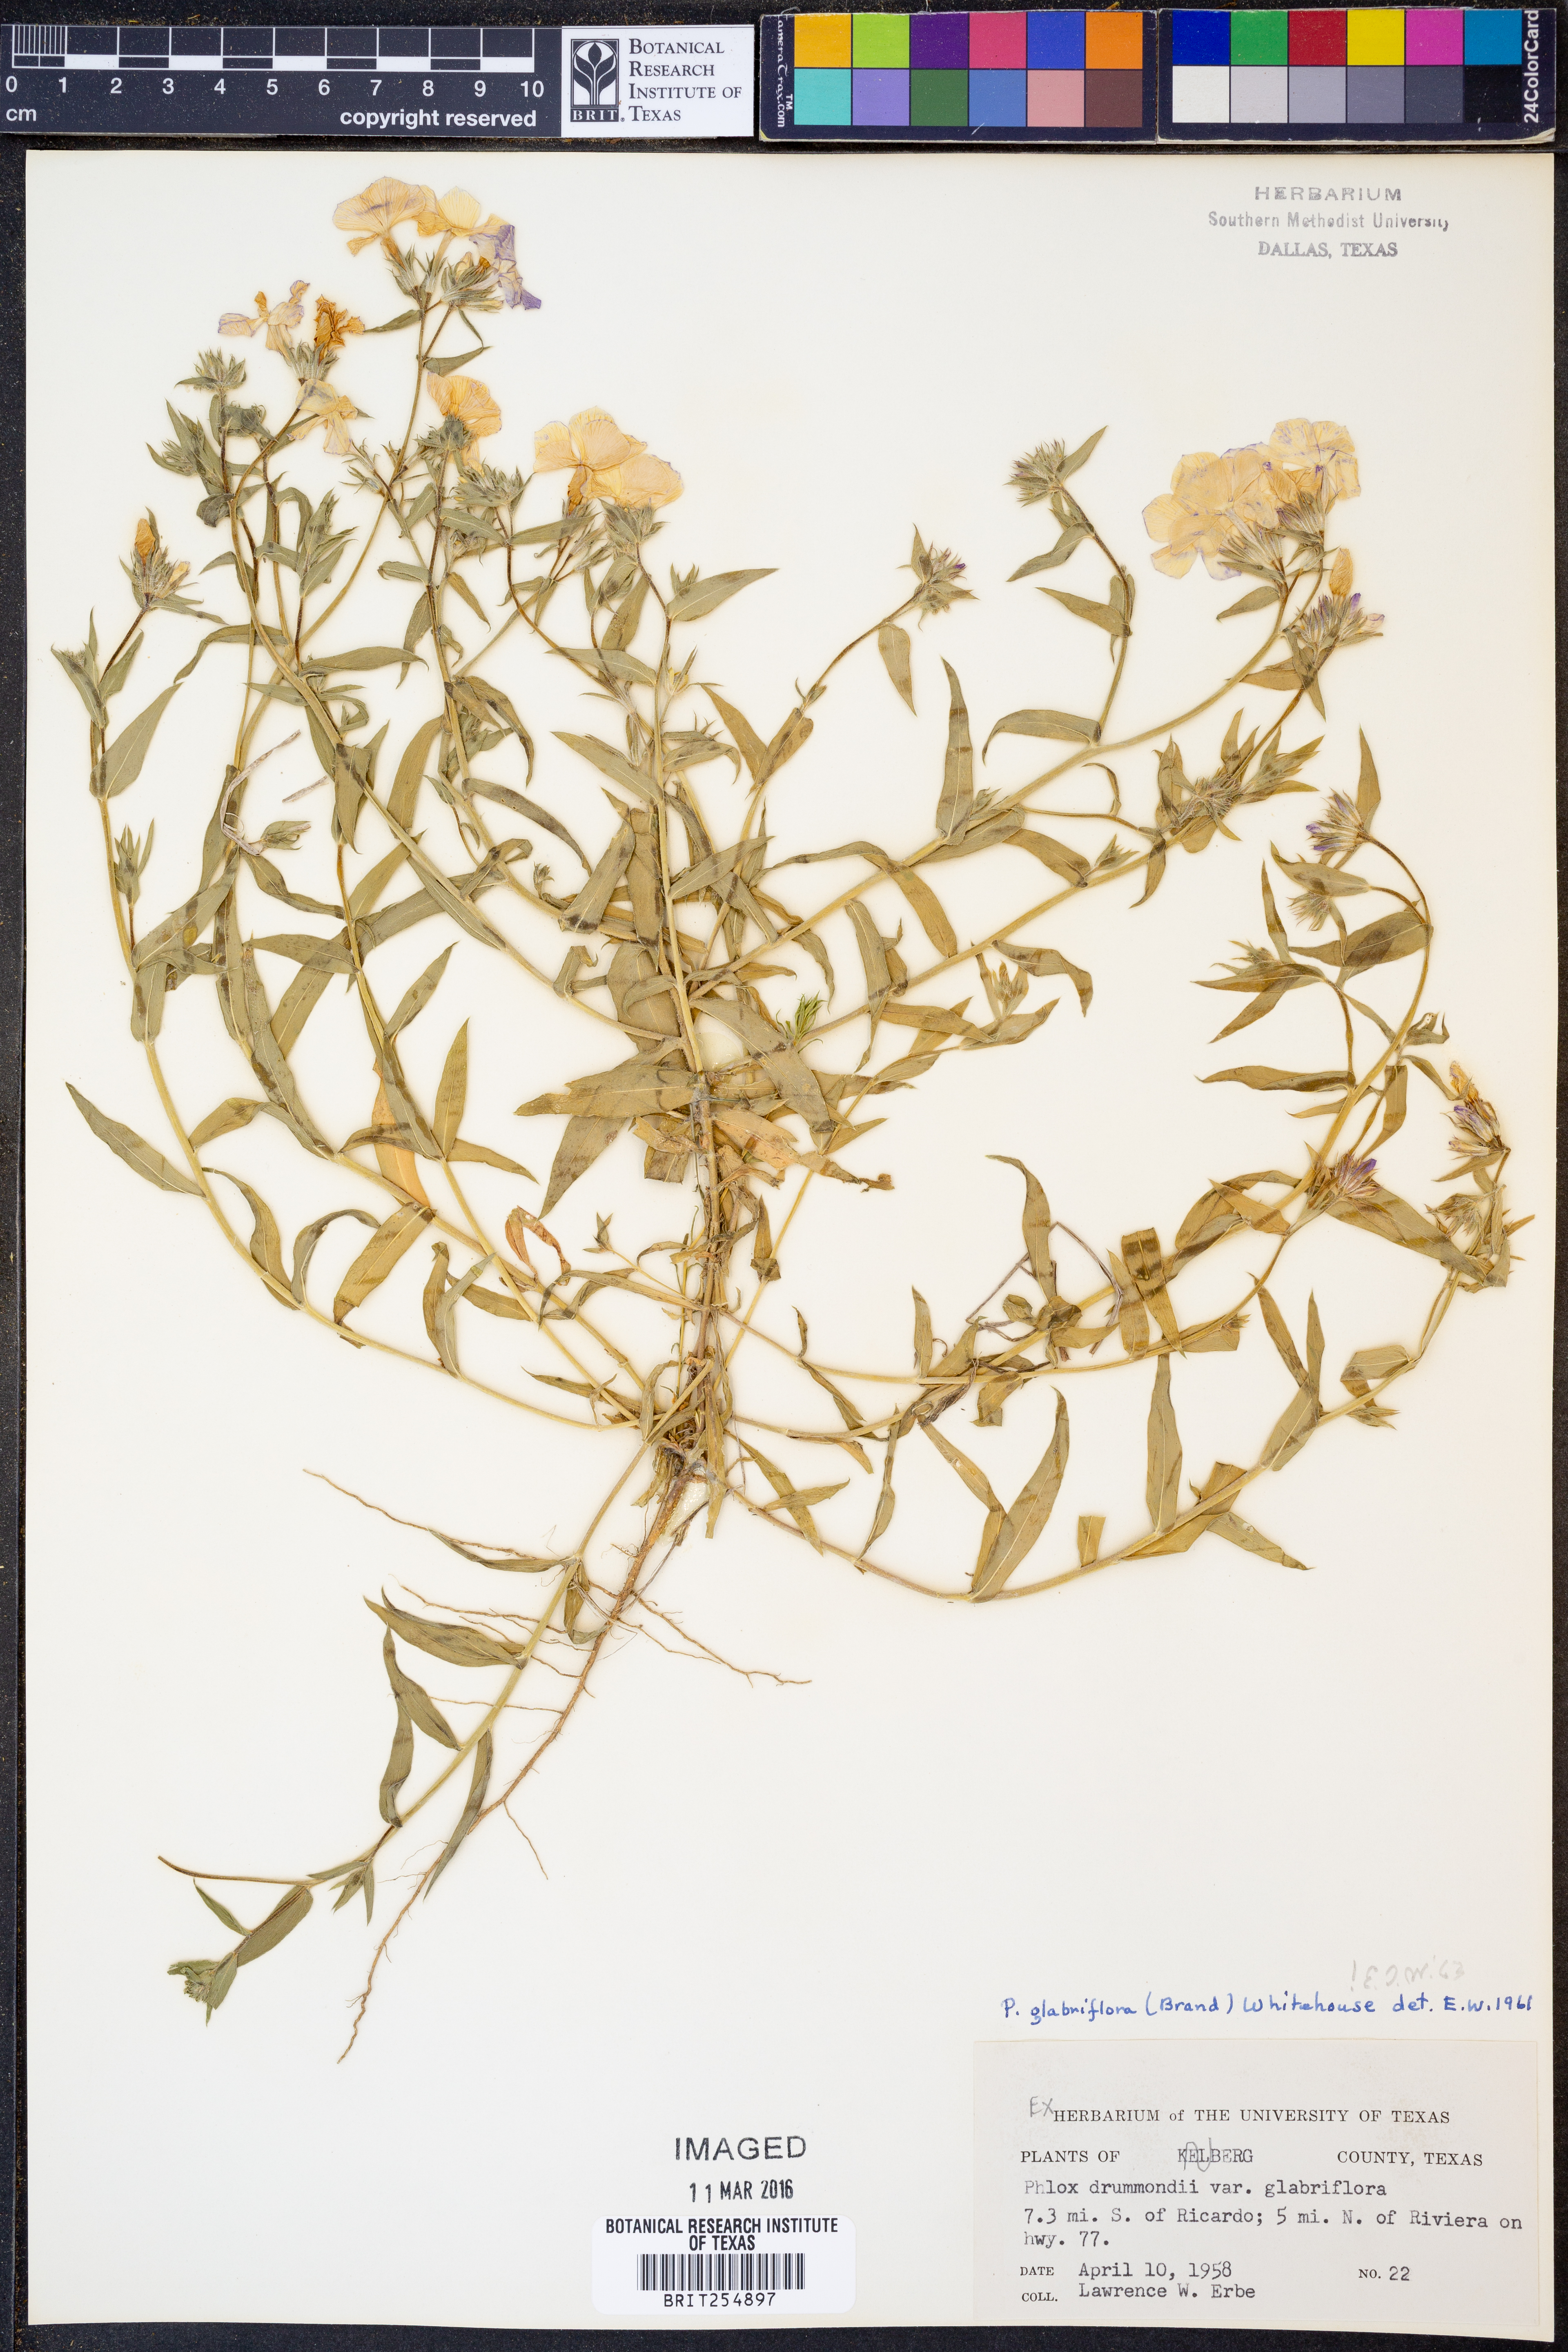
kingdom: Plantae
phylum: Tracheophyta
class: Magnoliopsida
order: Ericales
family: Polemoniaceae
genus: Phlox
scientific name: Phlox glabriflora
